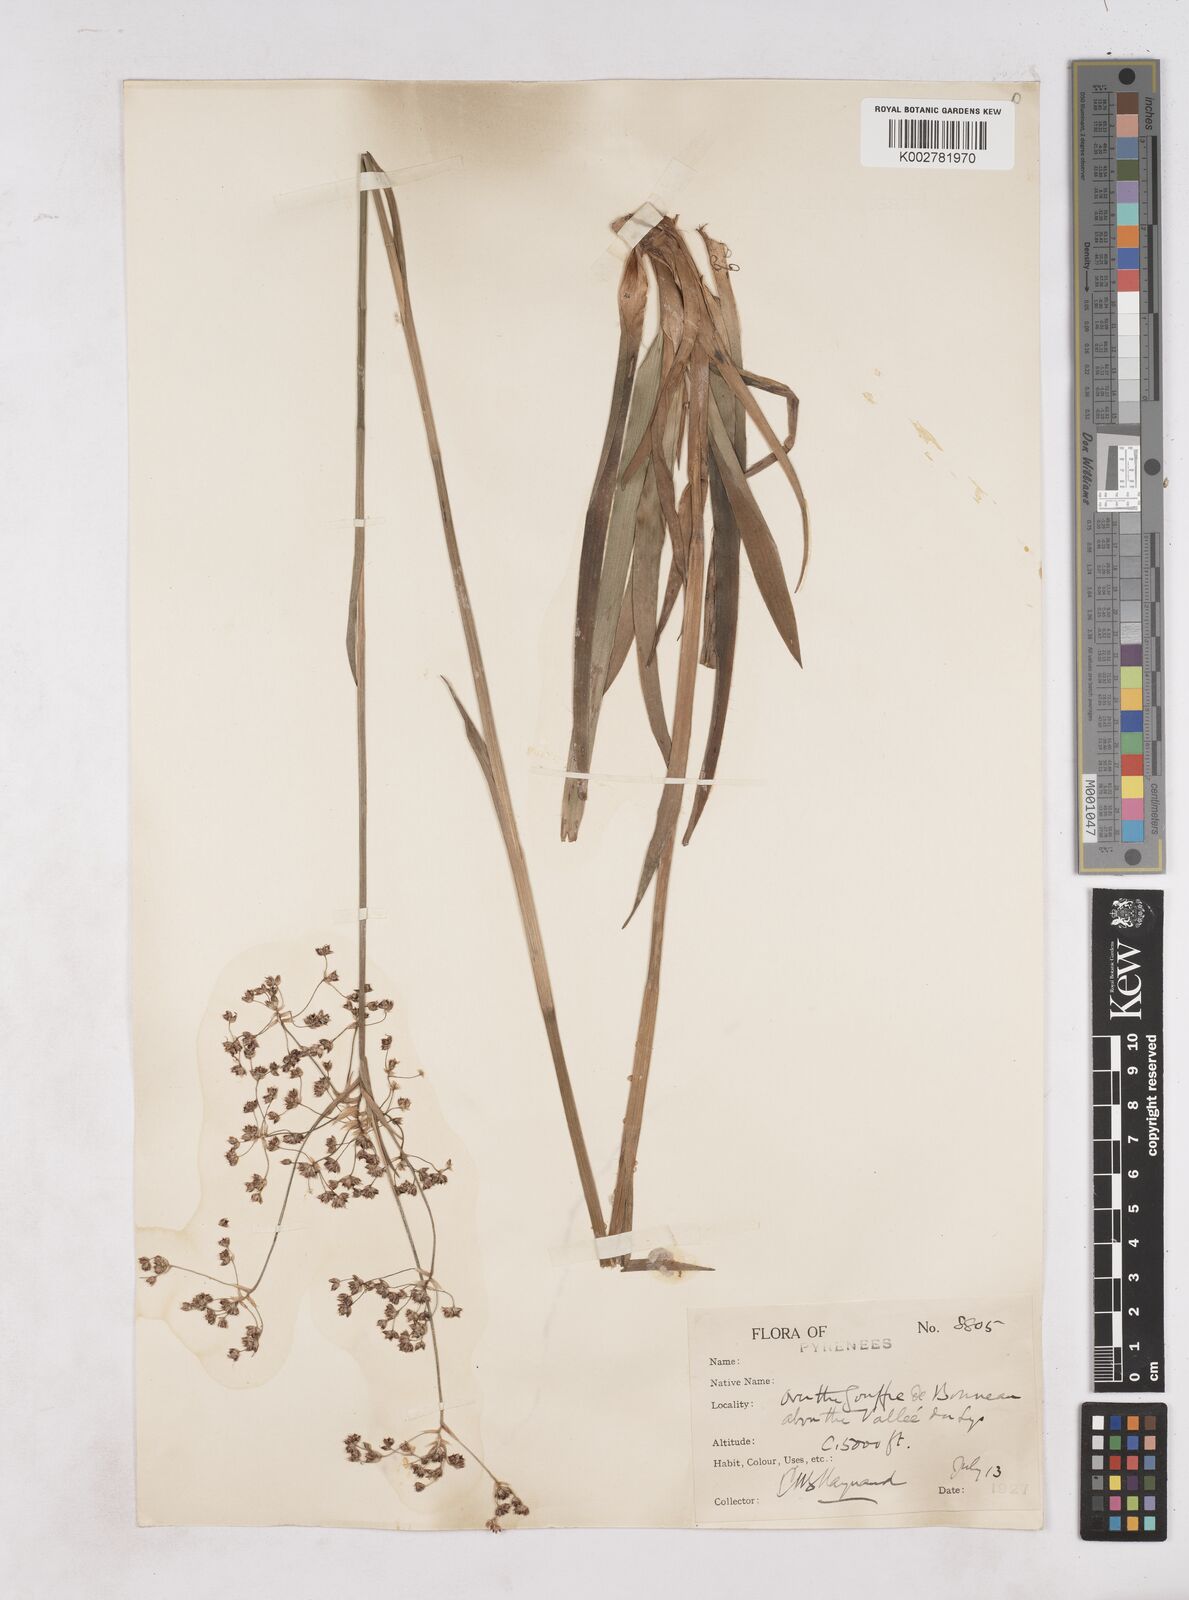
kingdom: Plantae
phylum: Tracheophyta
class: Liliopsida
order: Poales
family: Juncaceae
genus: Luzula
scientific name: Luzula sylvatica
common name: Great wood-rush
